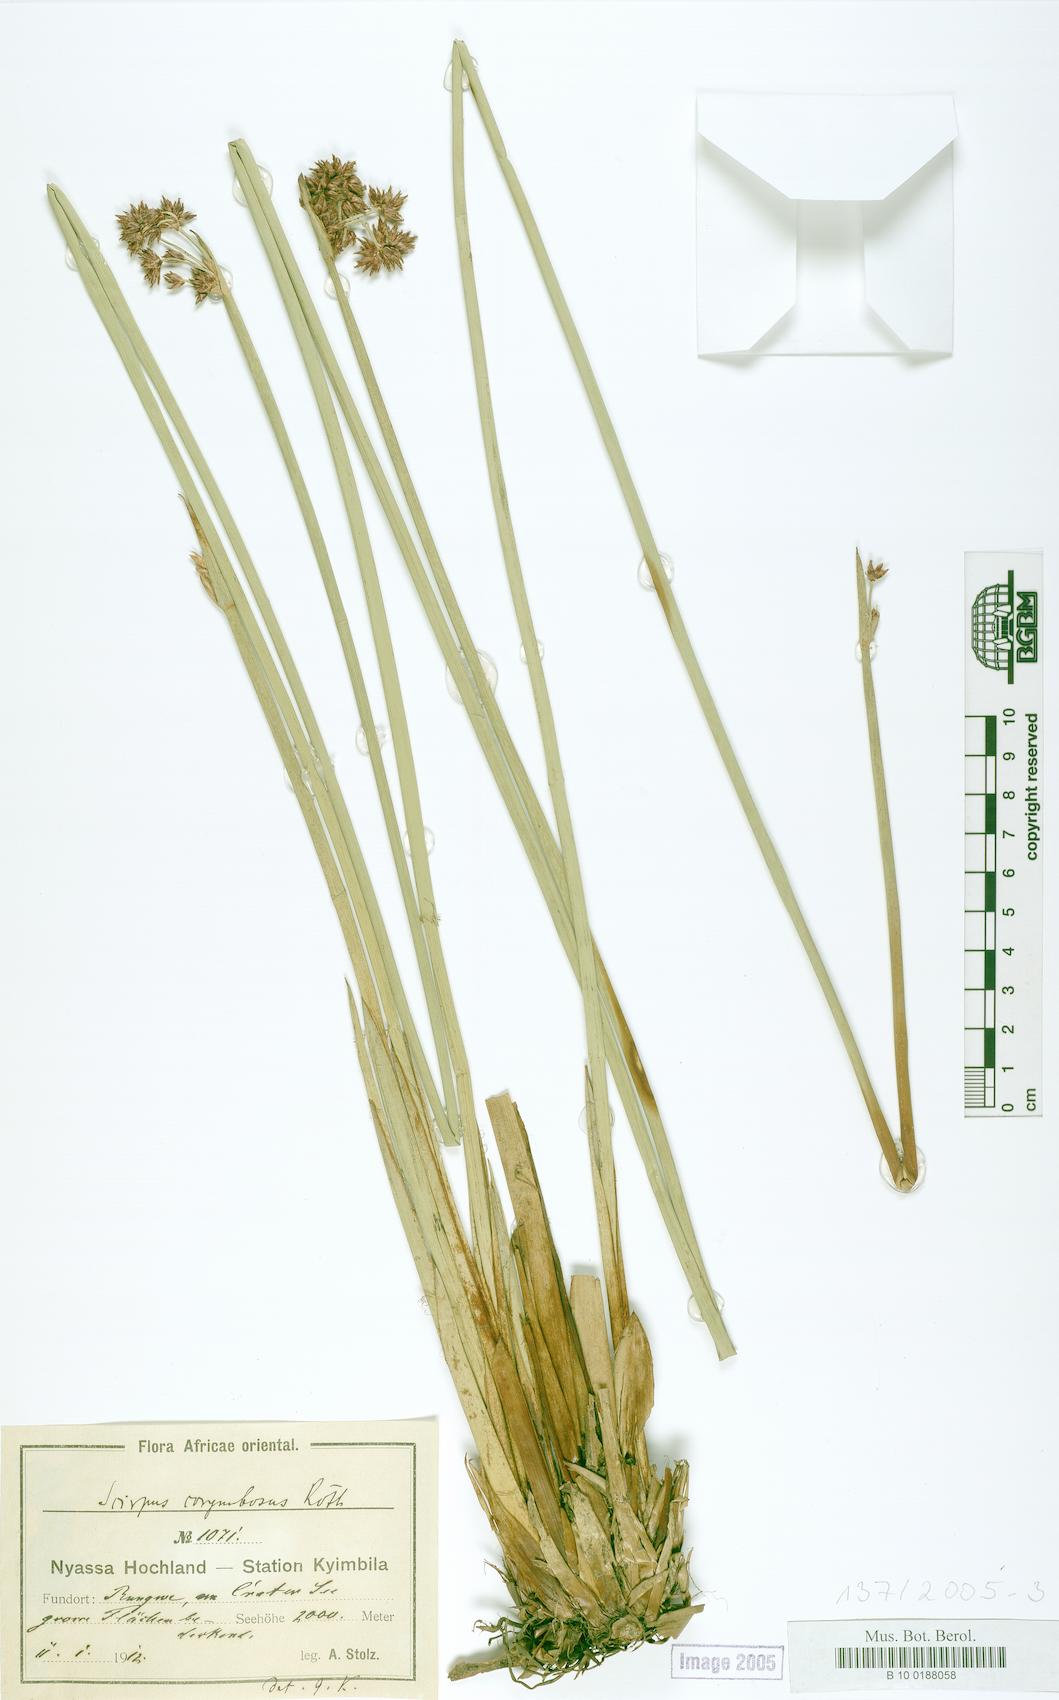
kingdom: Plantae
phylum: Tracheophyta
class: Liliopsida
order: Poales
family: Cyperaceae
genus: Scirpus
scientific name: Scirpus corymbosus
